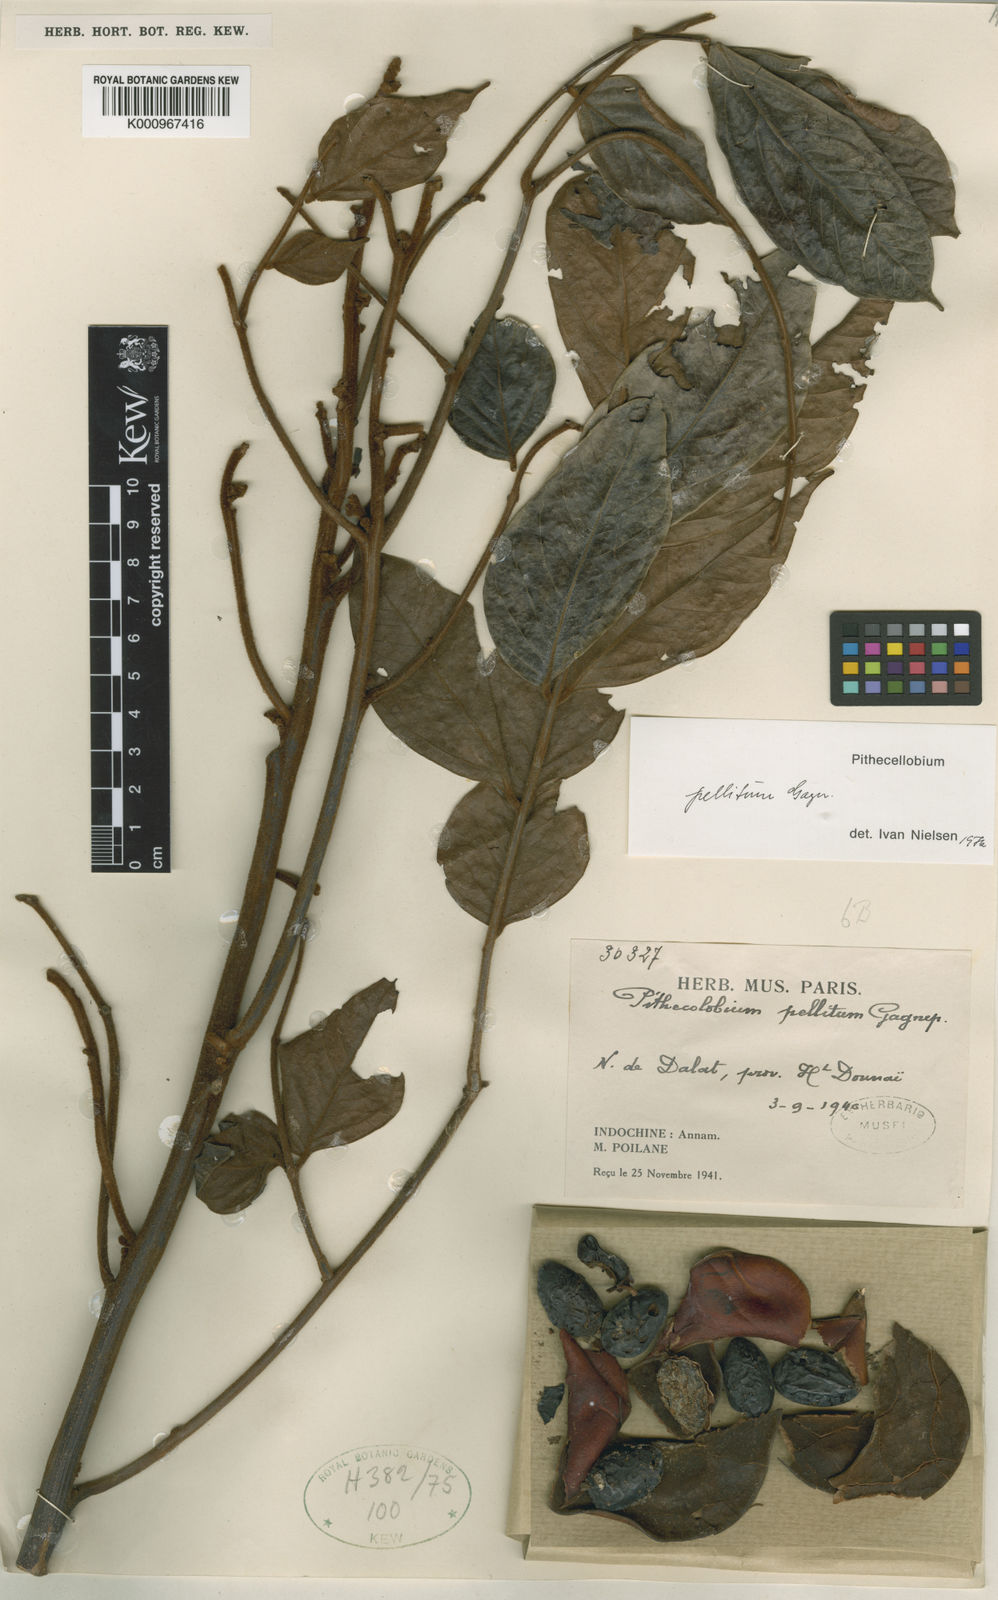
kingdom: Plantae
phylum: Tracheophyta
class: Magnoliopsida
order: Fabales
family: Fabaceae
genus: Archidendron
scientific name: Archidendron pellitum
